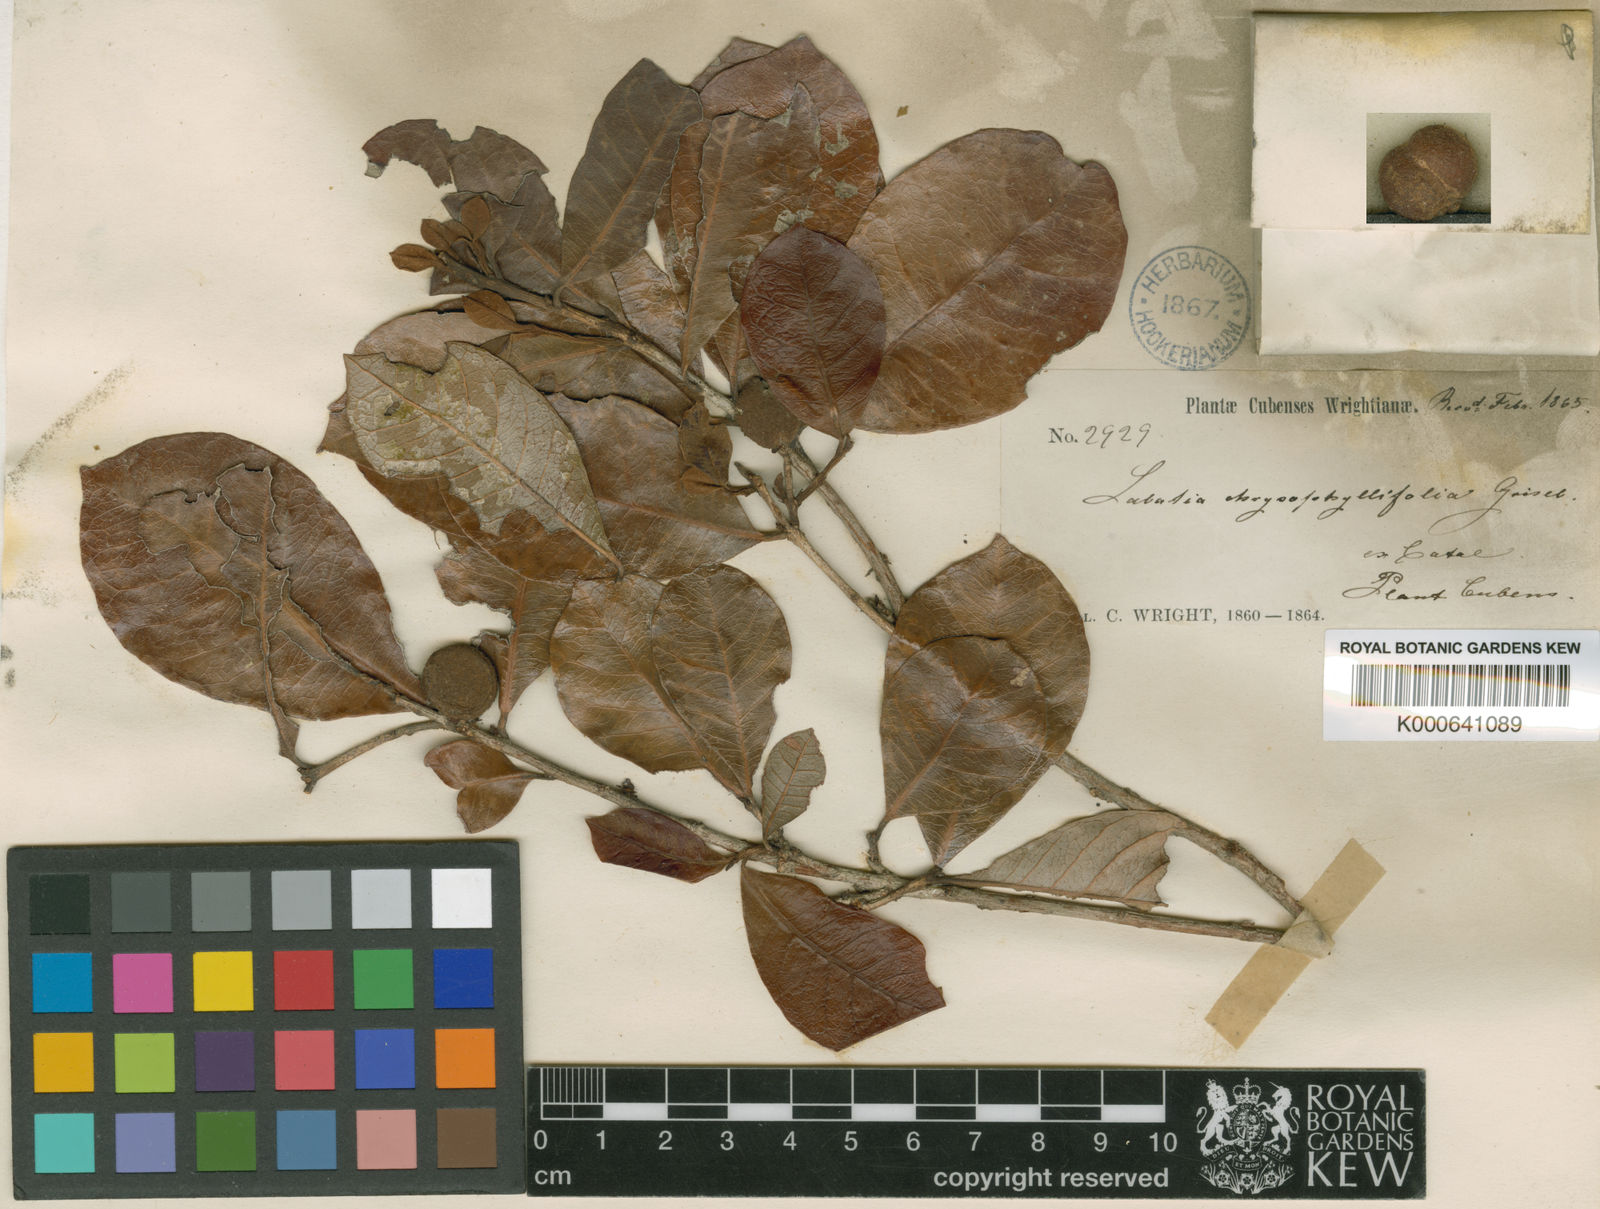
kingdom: Plantae
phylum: Tracheophyta
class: Magnoliopsida
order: Ericales
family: Sapotaceae
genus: Pouteria
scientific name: Pouteria sessiliflora
